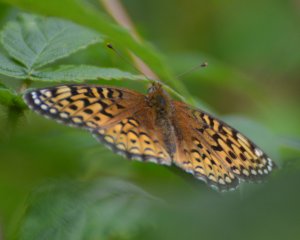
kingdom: Animalia
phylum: Arthropoda
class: Insecta
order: Lepidoptera
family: Nymphalidae
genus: Speyeria
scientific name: Speyeria atlantis
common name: Atlantis Fritillary
